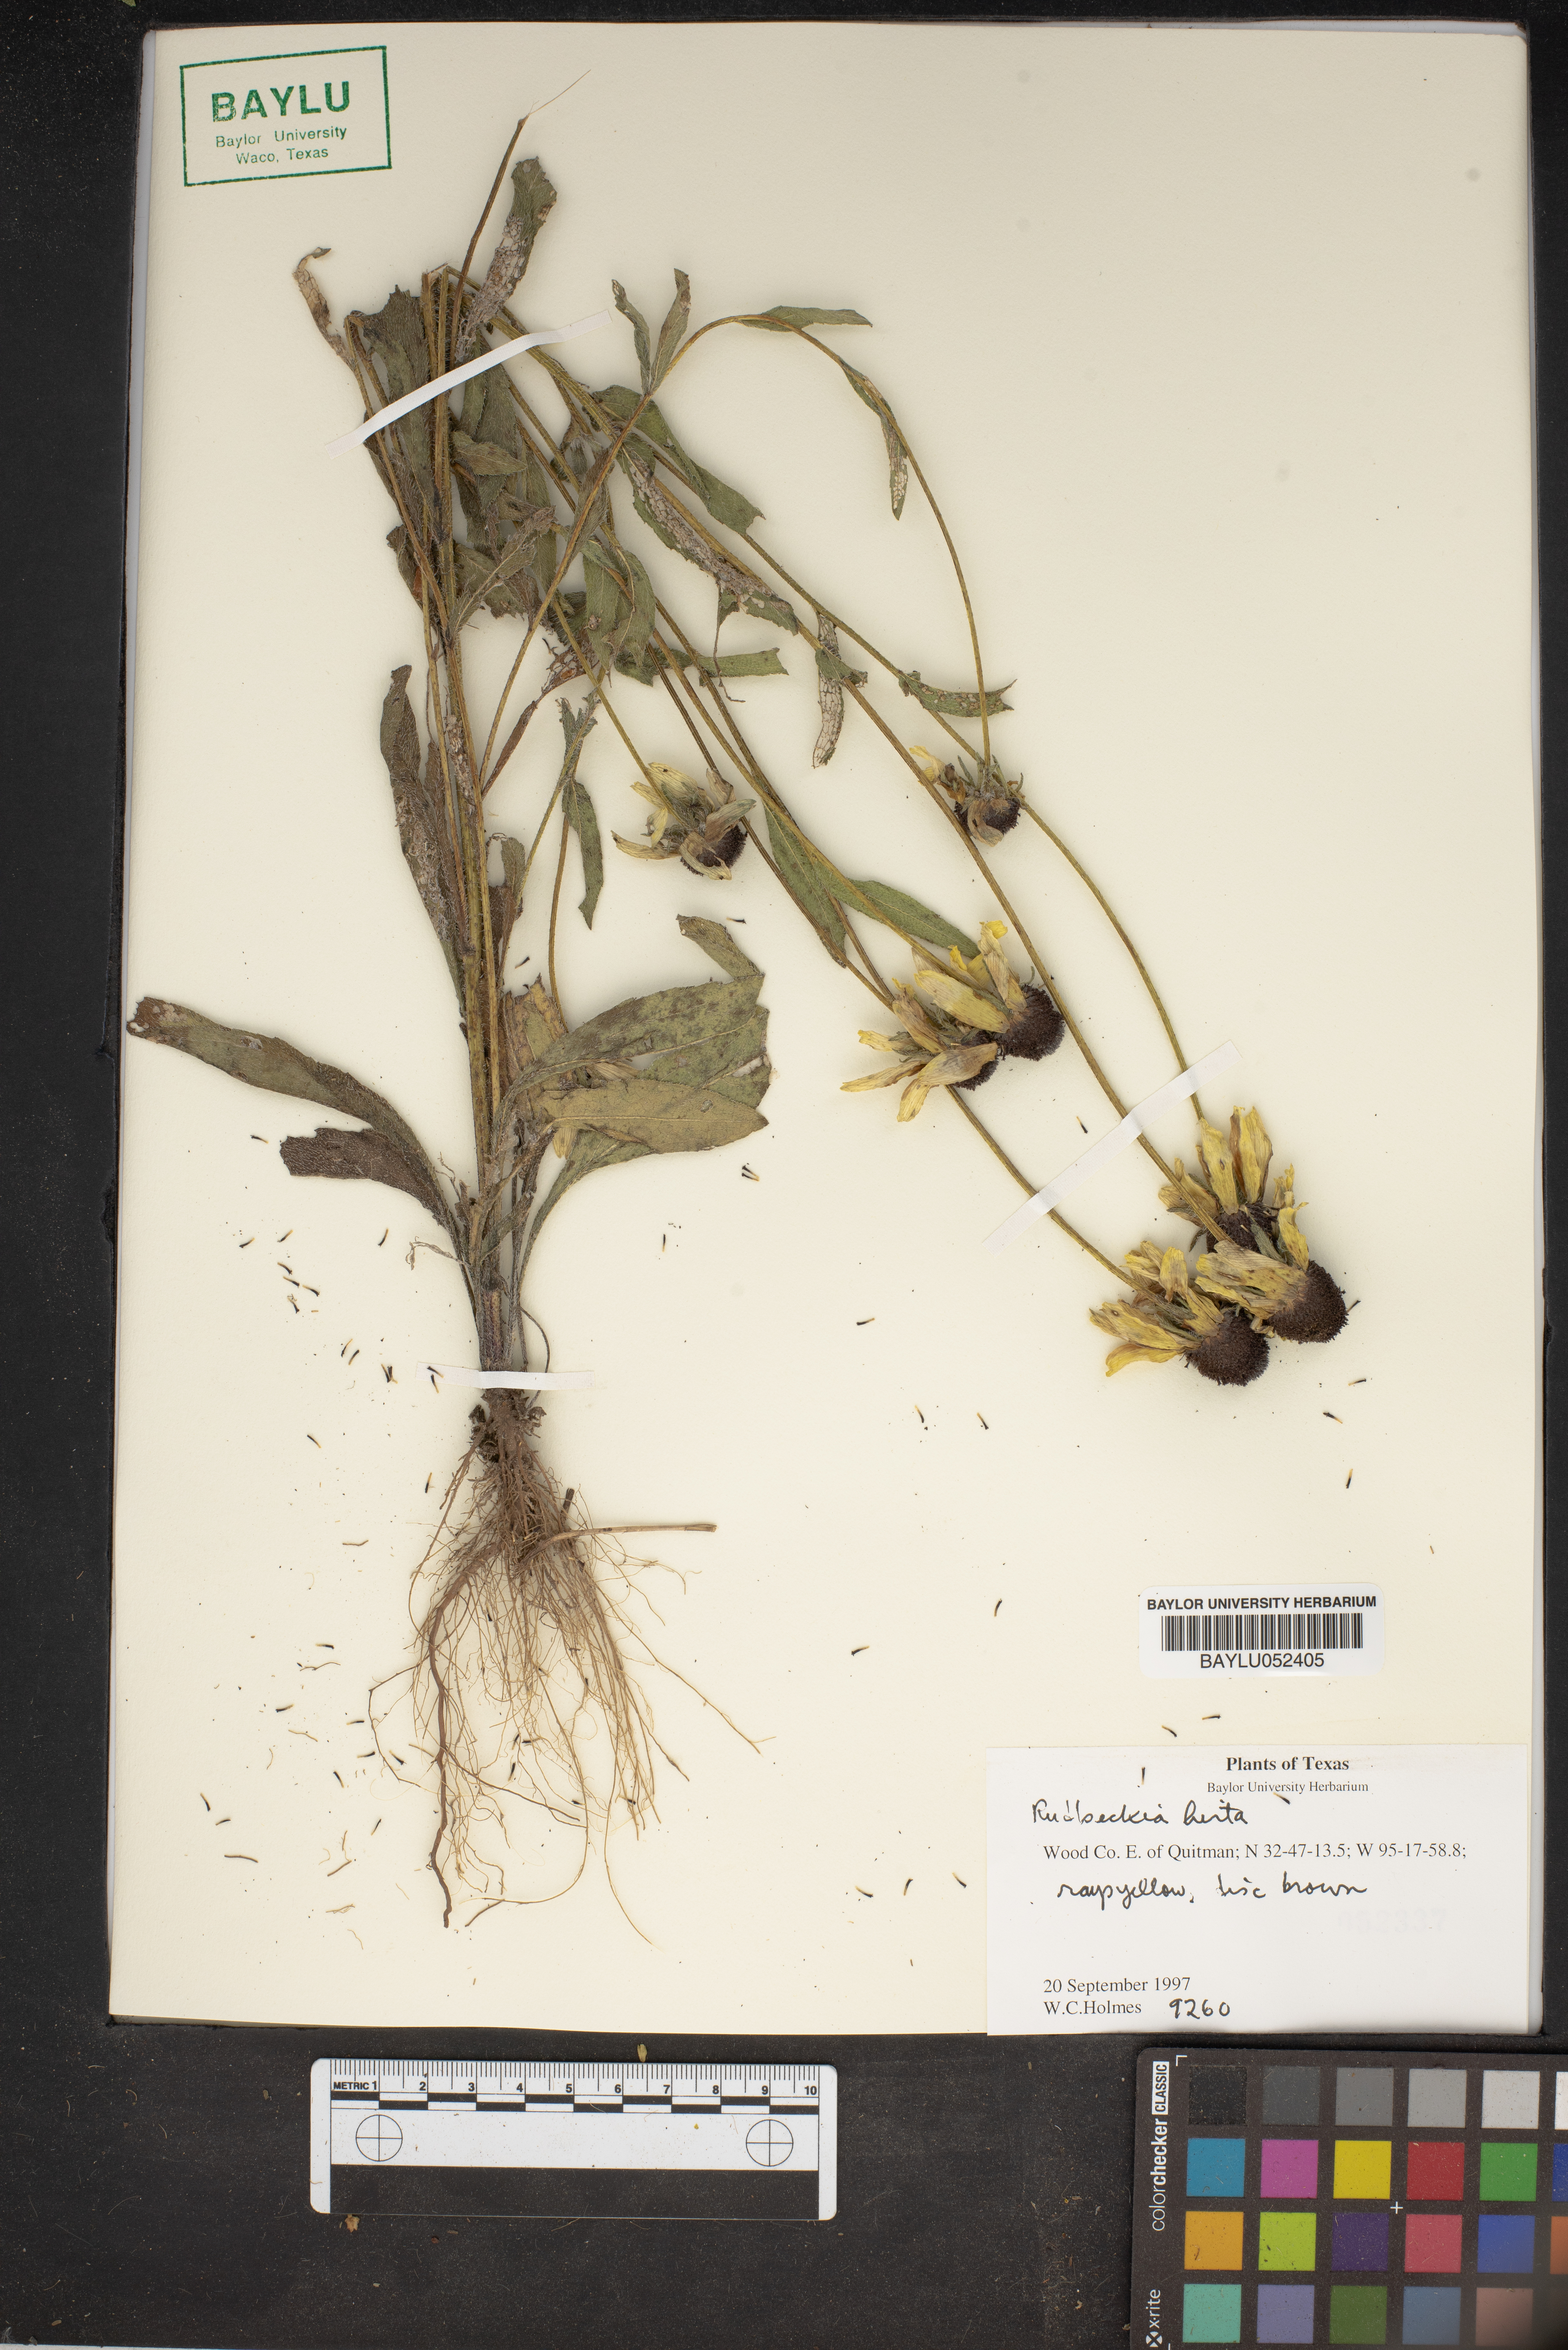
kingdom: Plantae
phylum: Tracheophyta
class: Magnoliopsida
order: Asterales
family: Asteraceae
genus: Rudbeckia
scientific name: Rudbeckia hirta
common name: Black-eyed-susan
